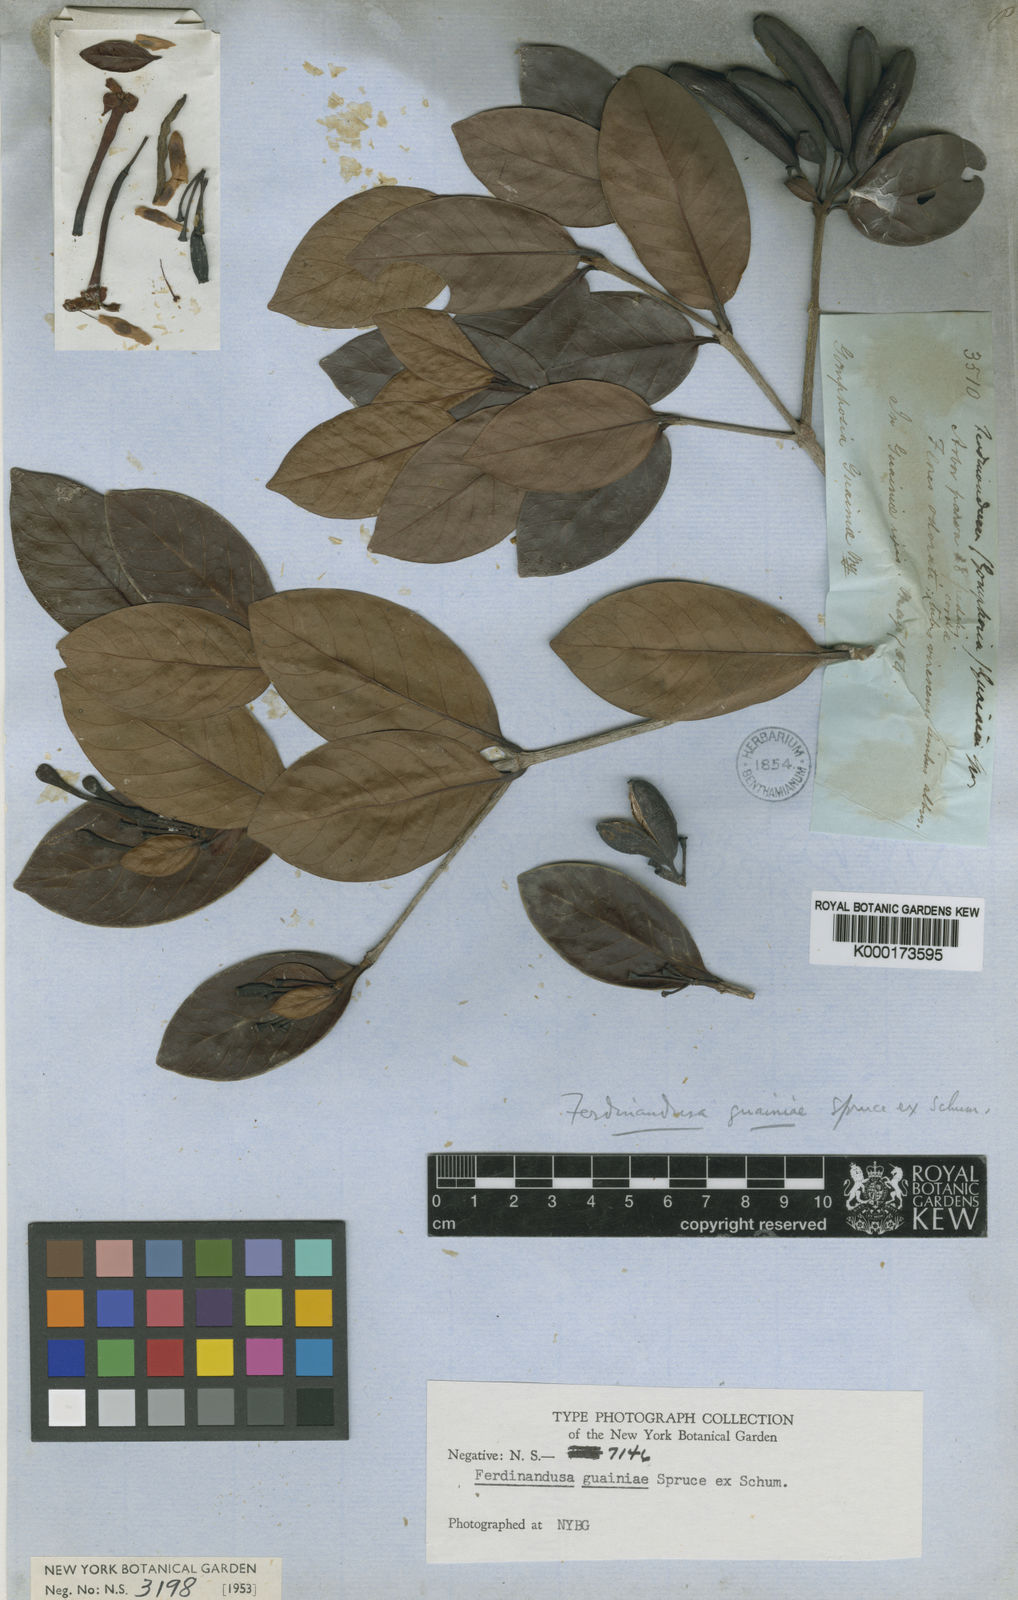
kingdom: Plantae
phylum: Tracheophyta
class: Magnoliopsida
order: Gentianales
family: Rubiaceae
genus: Ferdinandusa
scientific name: Ferdinandusa guainiae
